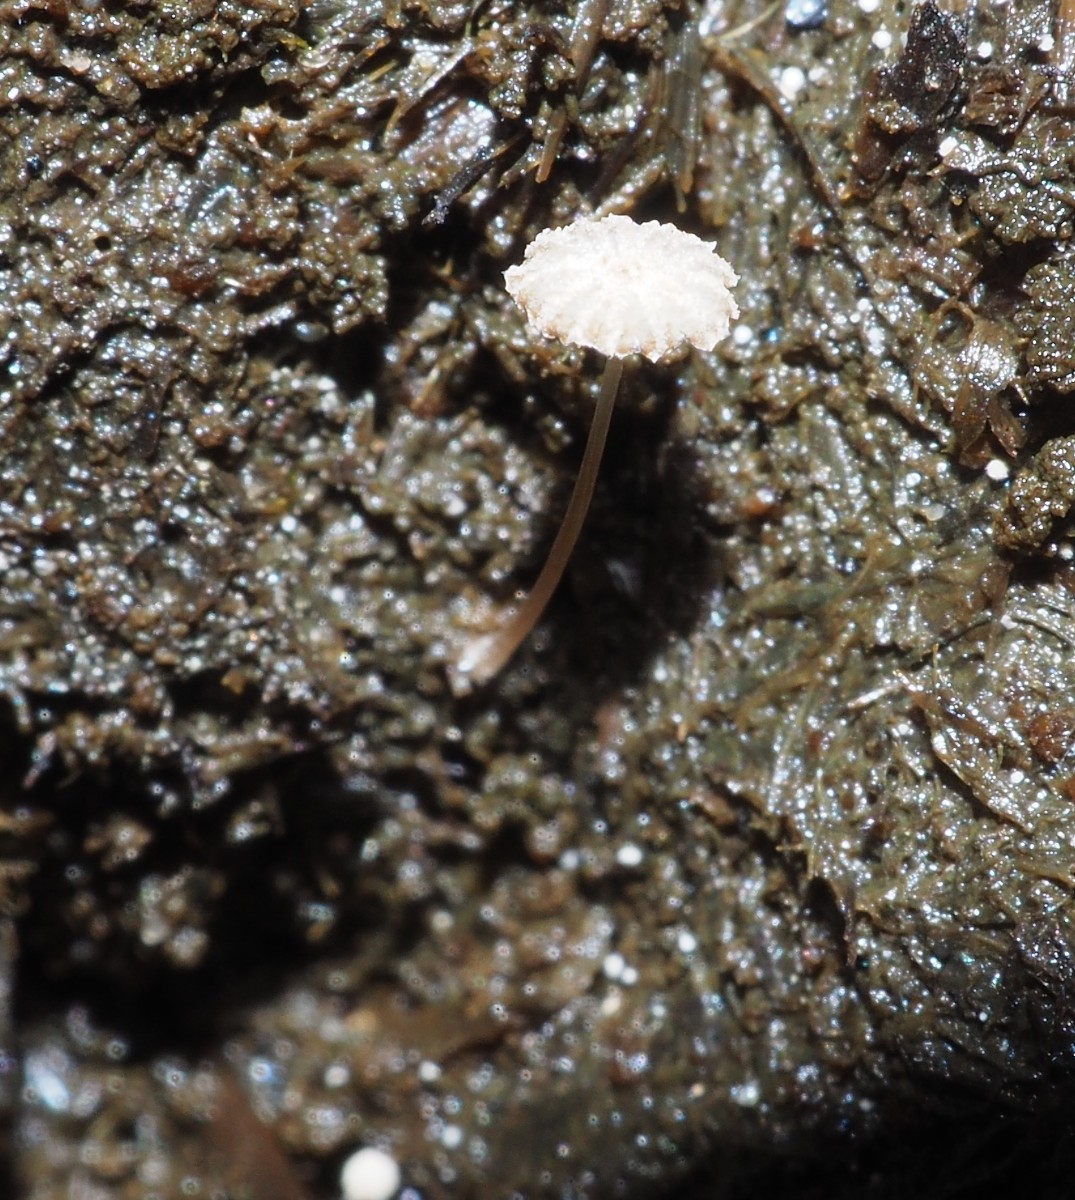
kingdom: Fungi
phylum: Basidiomycota
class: Agaricomycetes
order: Agaricales
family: Psathyrellaceae
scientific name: Psathyrellaceae
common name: mørkhatfamilien
